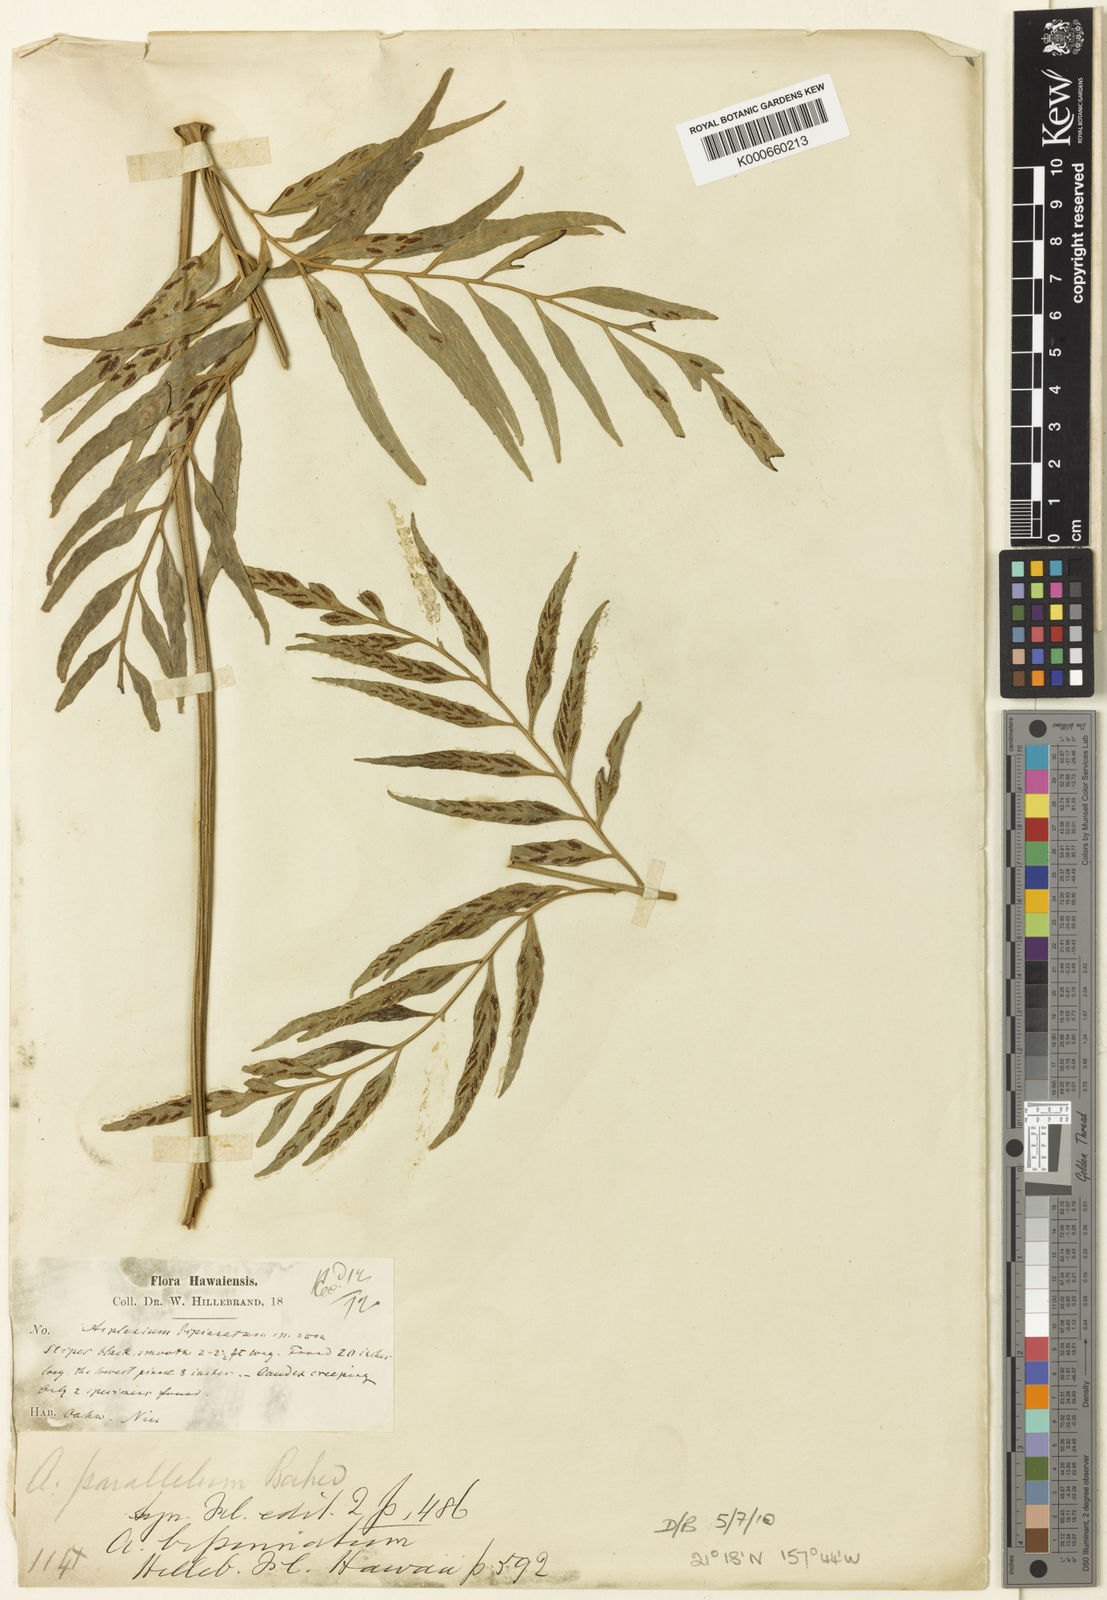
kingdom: Plantae
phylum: Tracheophyta
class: Polypodiopsida
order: Polypodiales
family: Aspleniaceae
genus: Asplenium
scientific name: Asplenium kaulfussii
